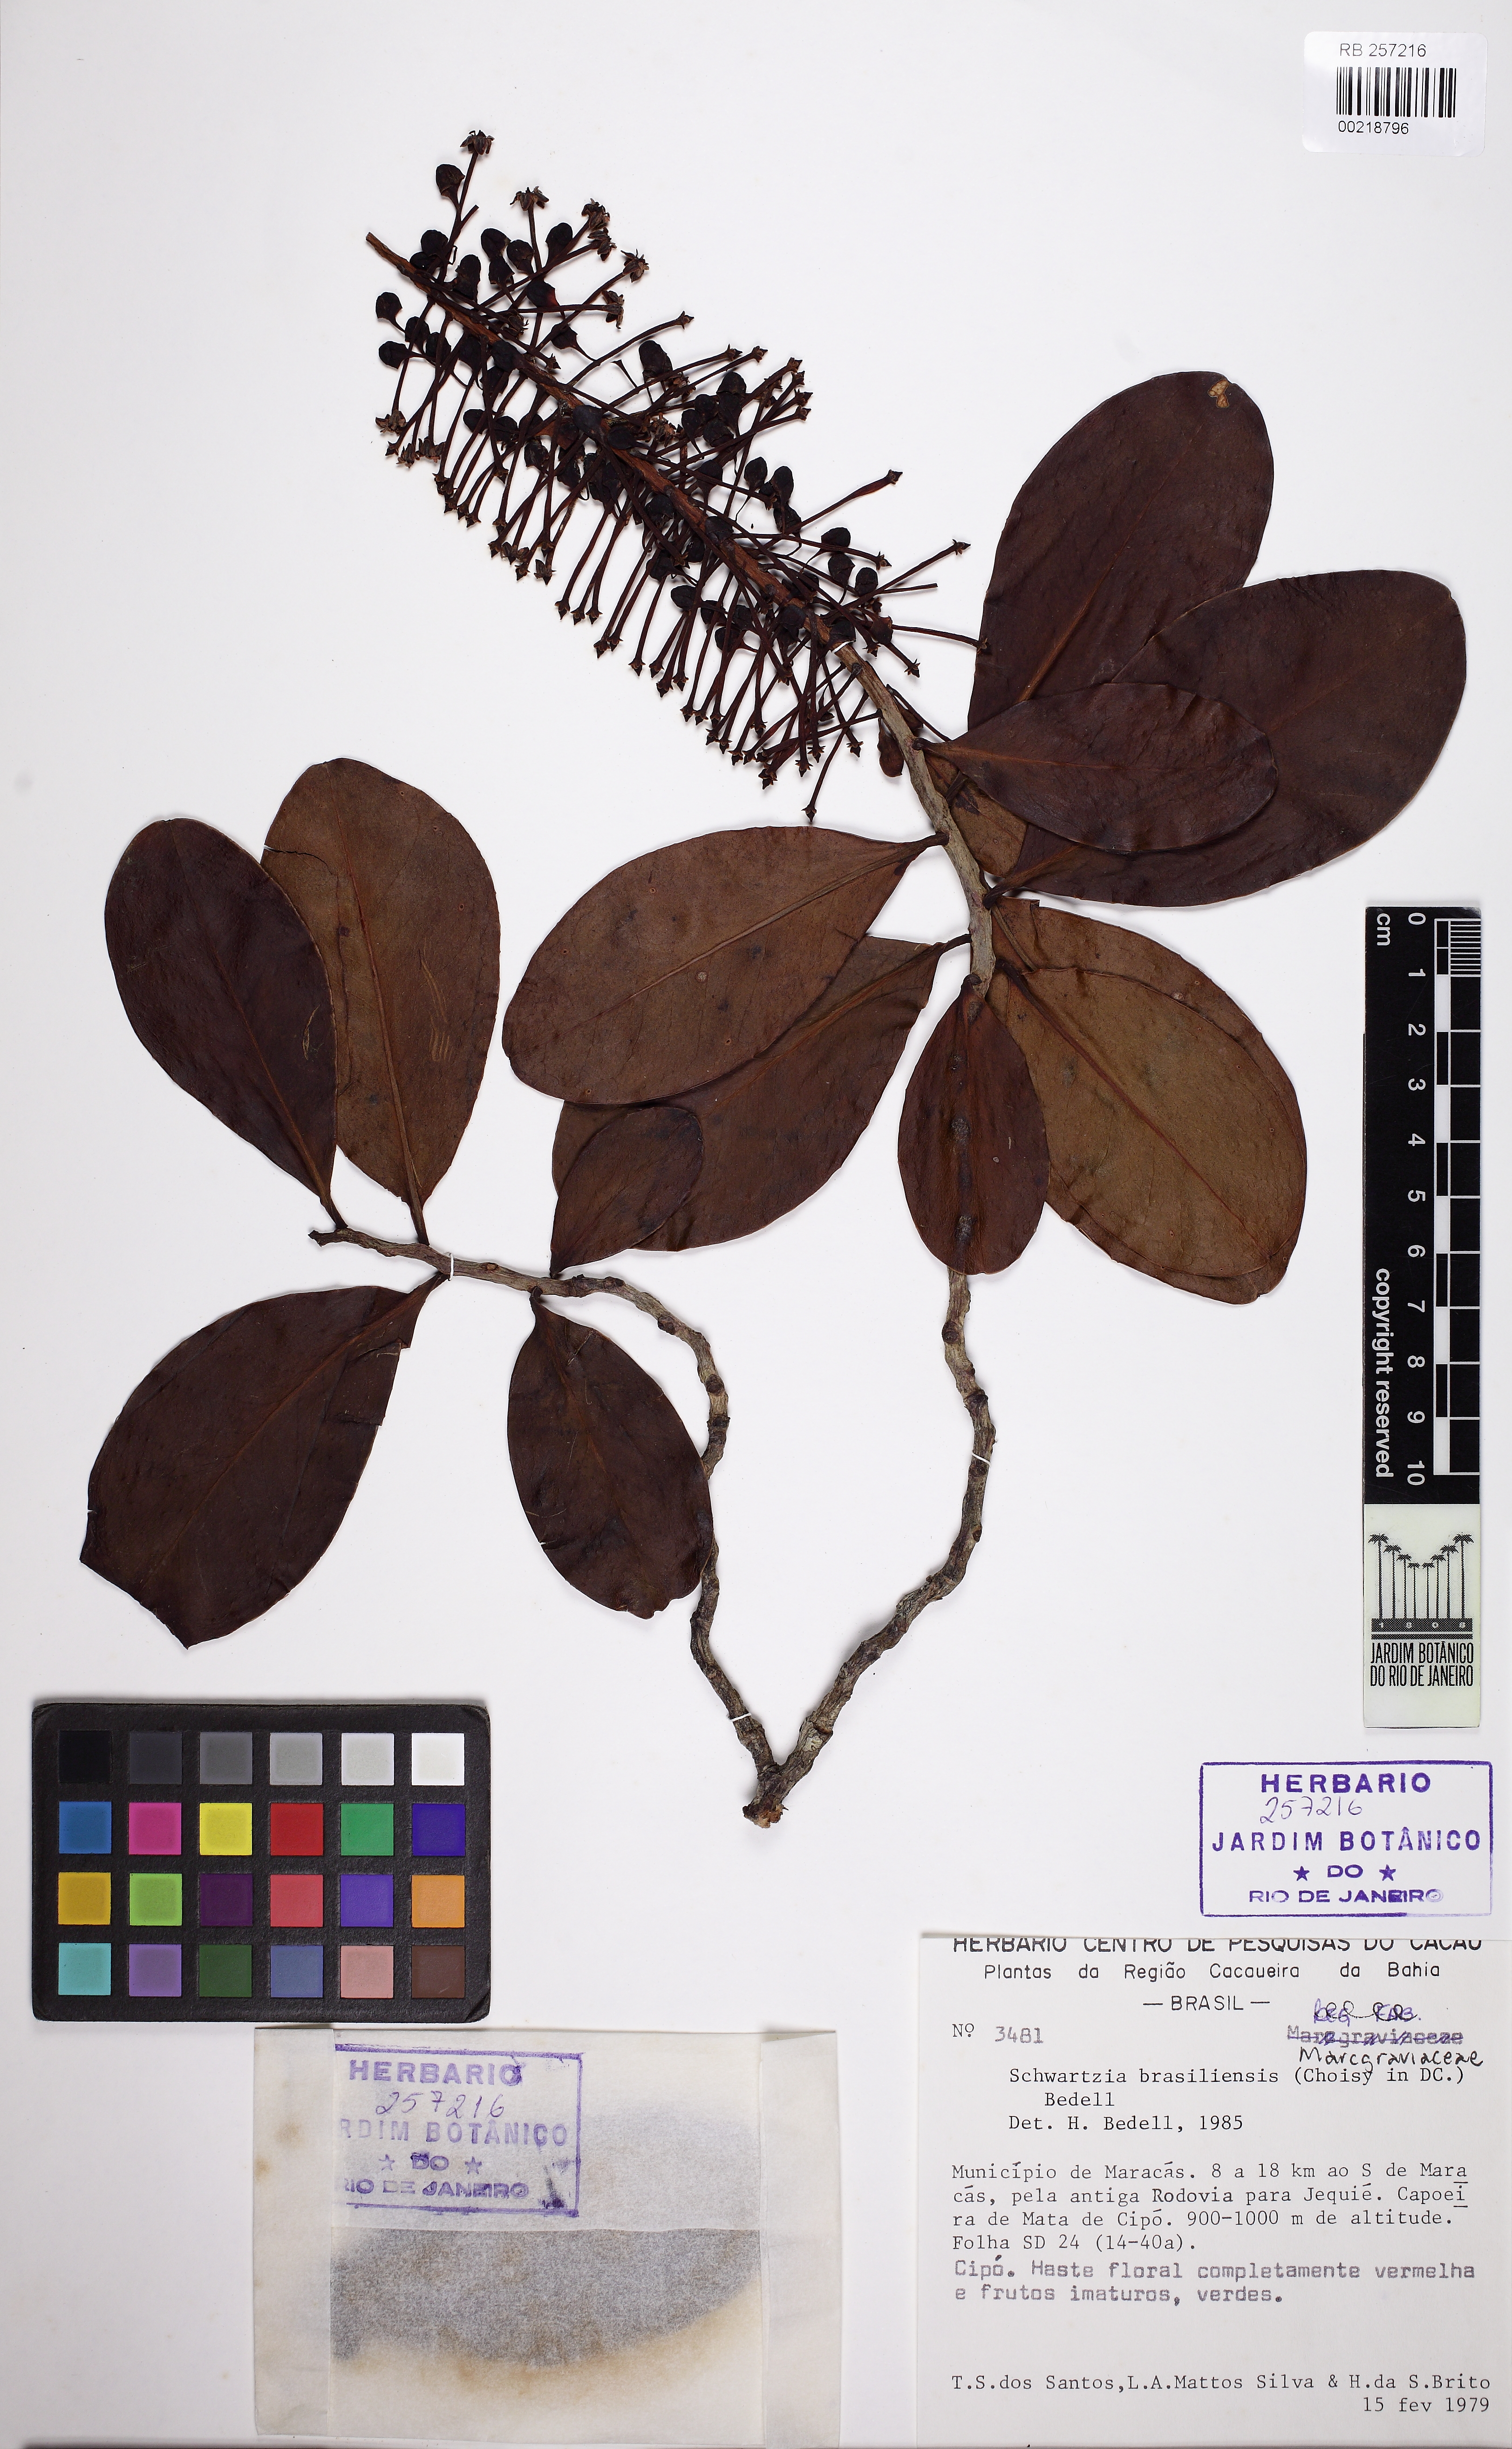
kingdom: Plantae
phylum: Tracheophyta
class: Magnoliopsida
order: Ericales
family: Marcgraviaceae
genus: Schwartzia
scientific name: Schwartzia brasiliensis
